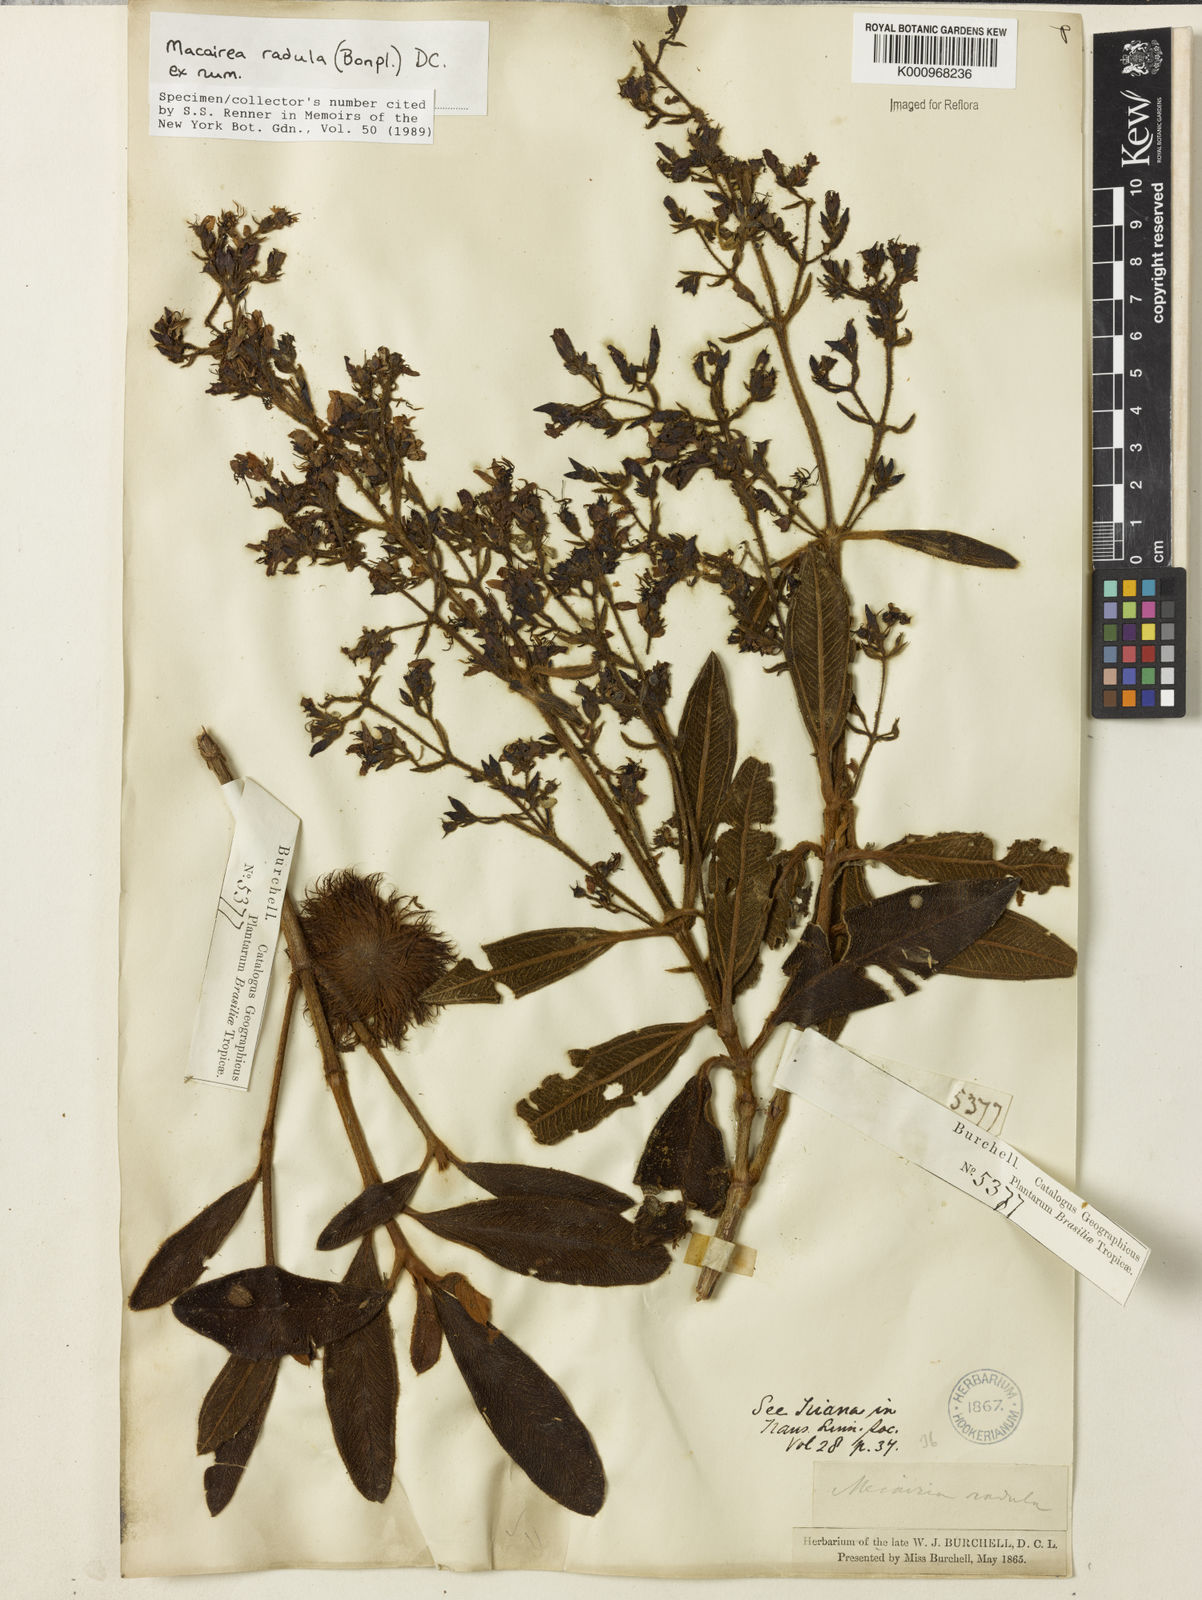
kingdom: Plantae
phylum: Tracheophyta
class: Magnoliopsida
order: Myrtales
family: Melastomataceae
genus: Macairea
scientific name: Macairea radula
